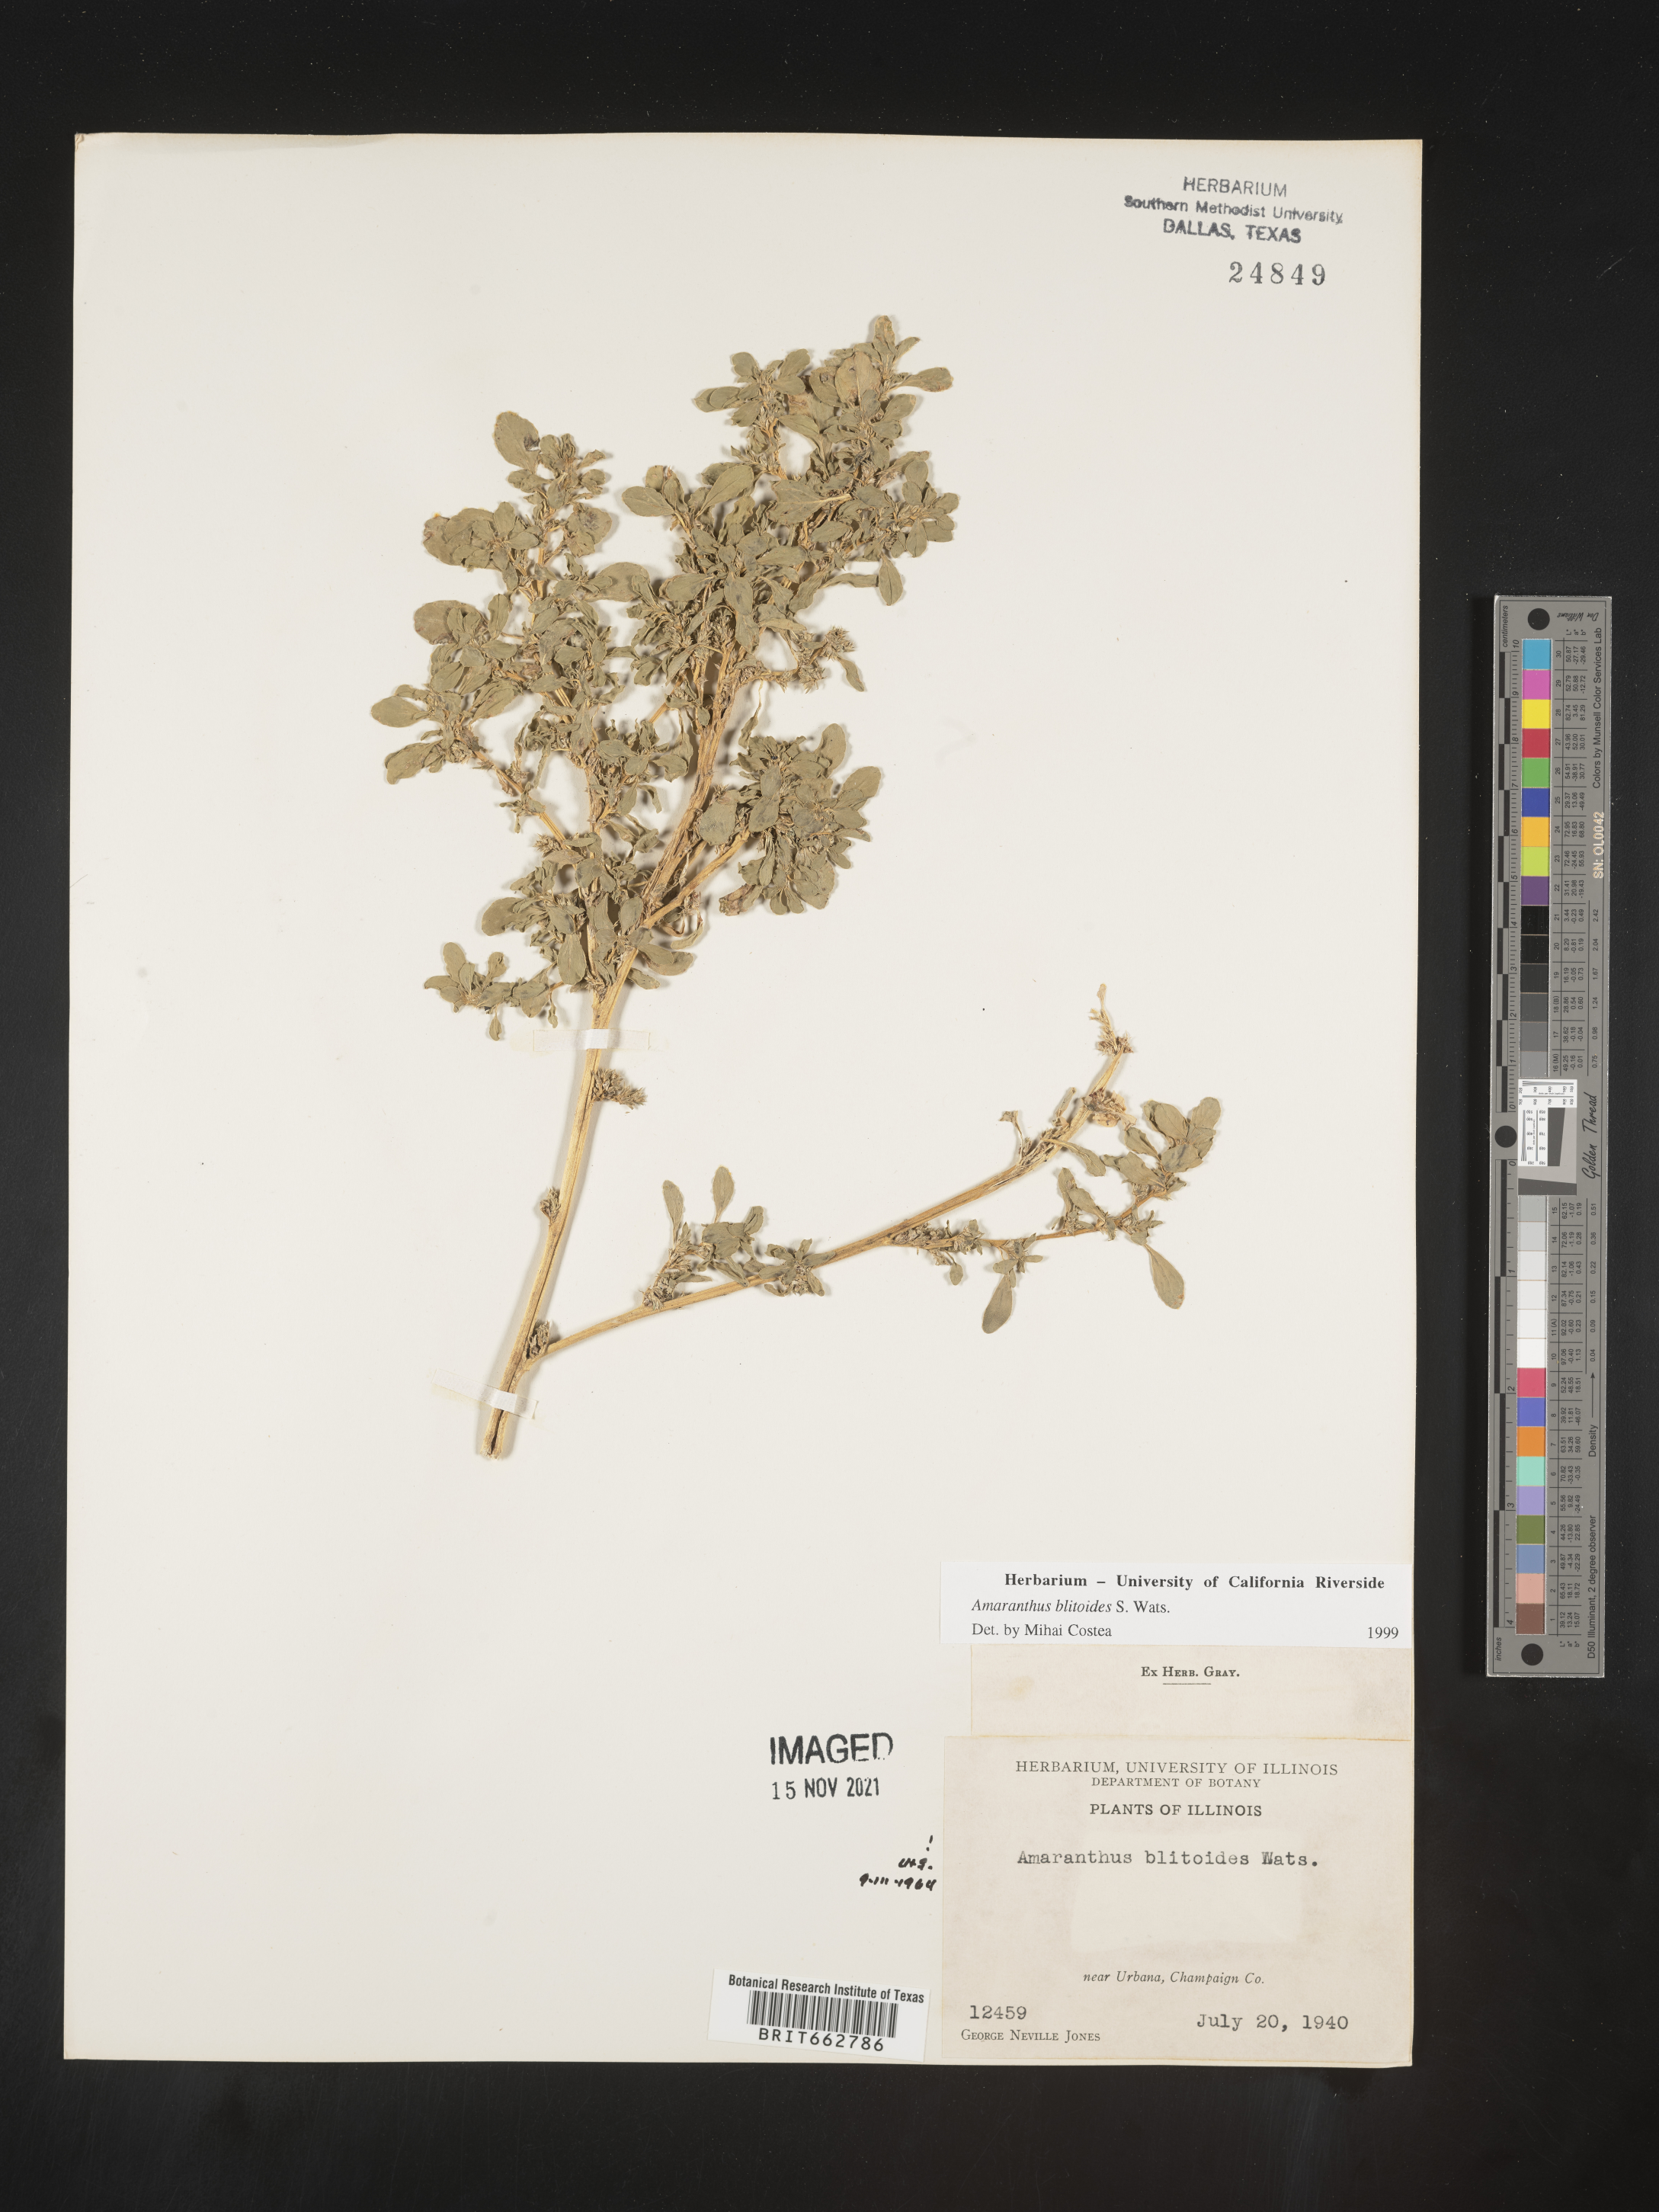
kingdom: Plantae
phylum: Tracheophyta
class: Magnoliopsida
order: Caryophyllales
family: Amaranthaceae
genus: Amaranthus
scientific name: Amaranthus blitoides
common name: Prostrate pigweed
